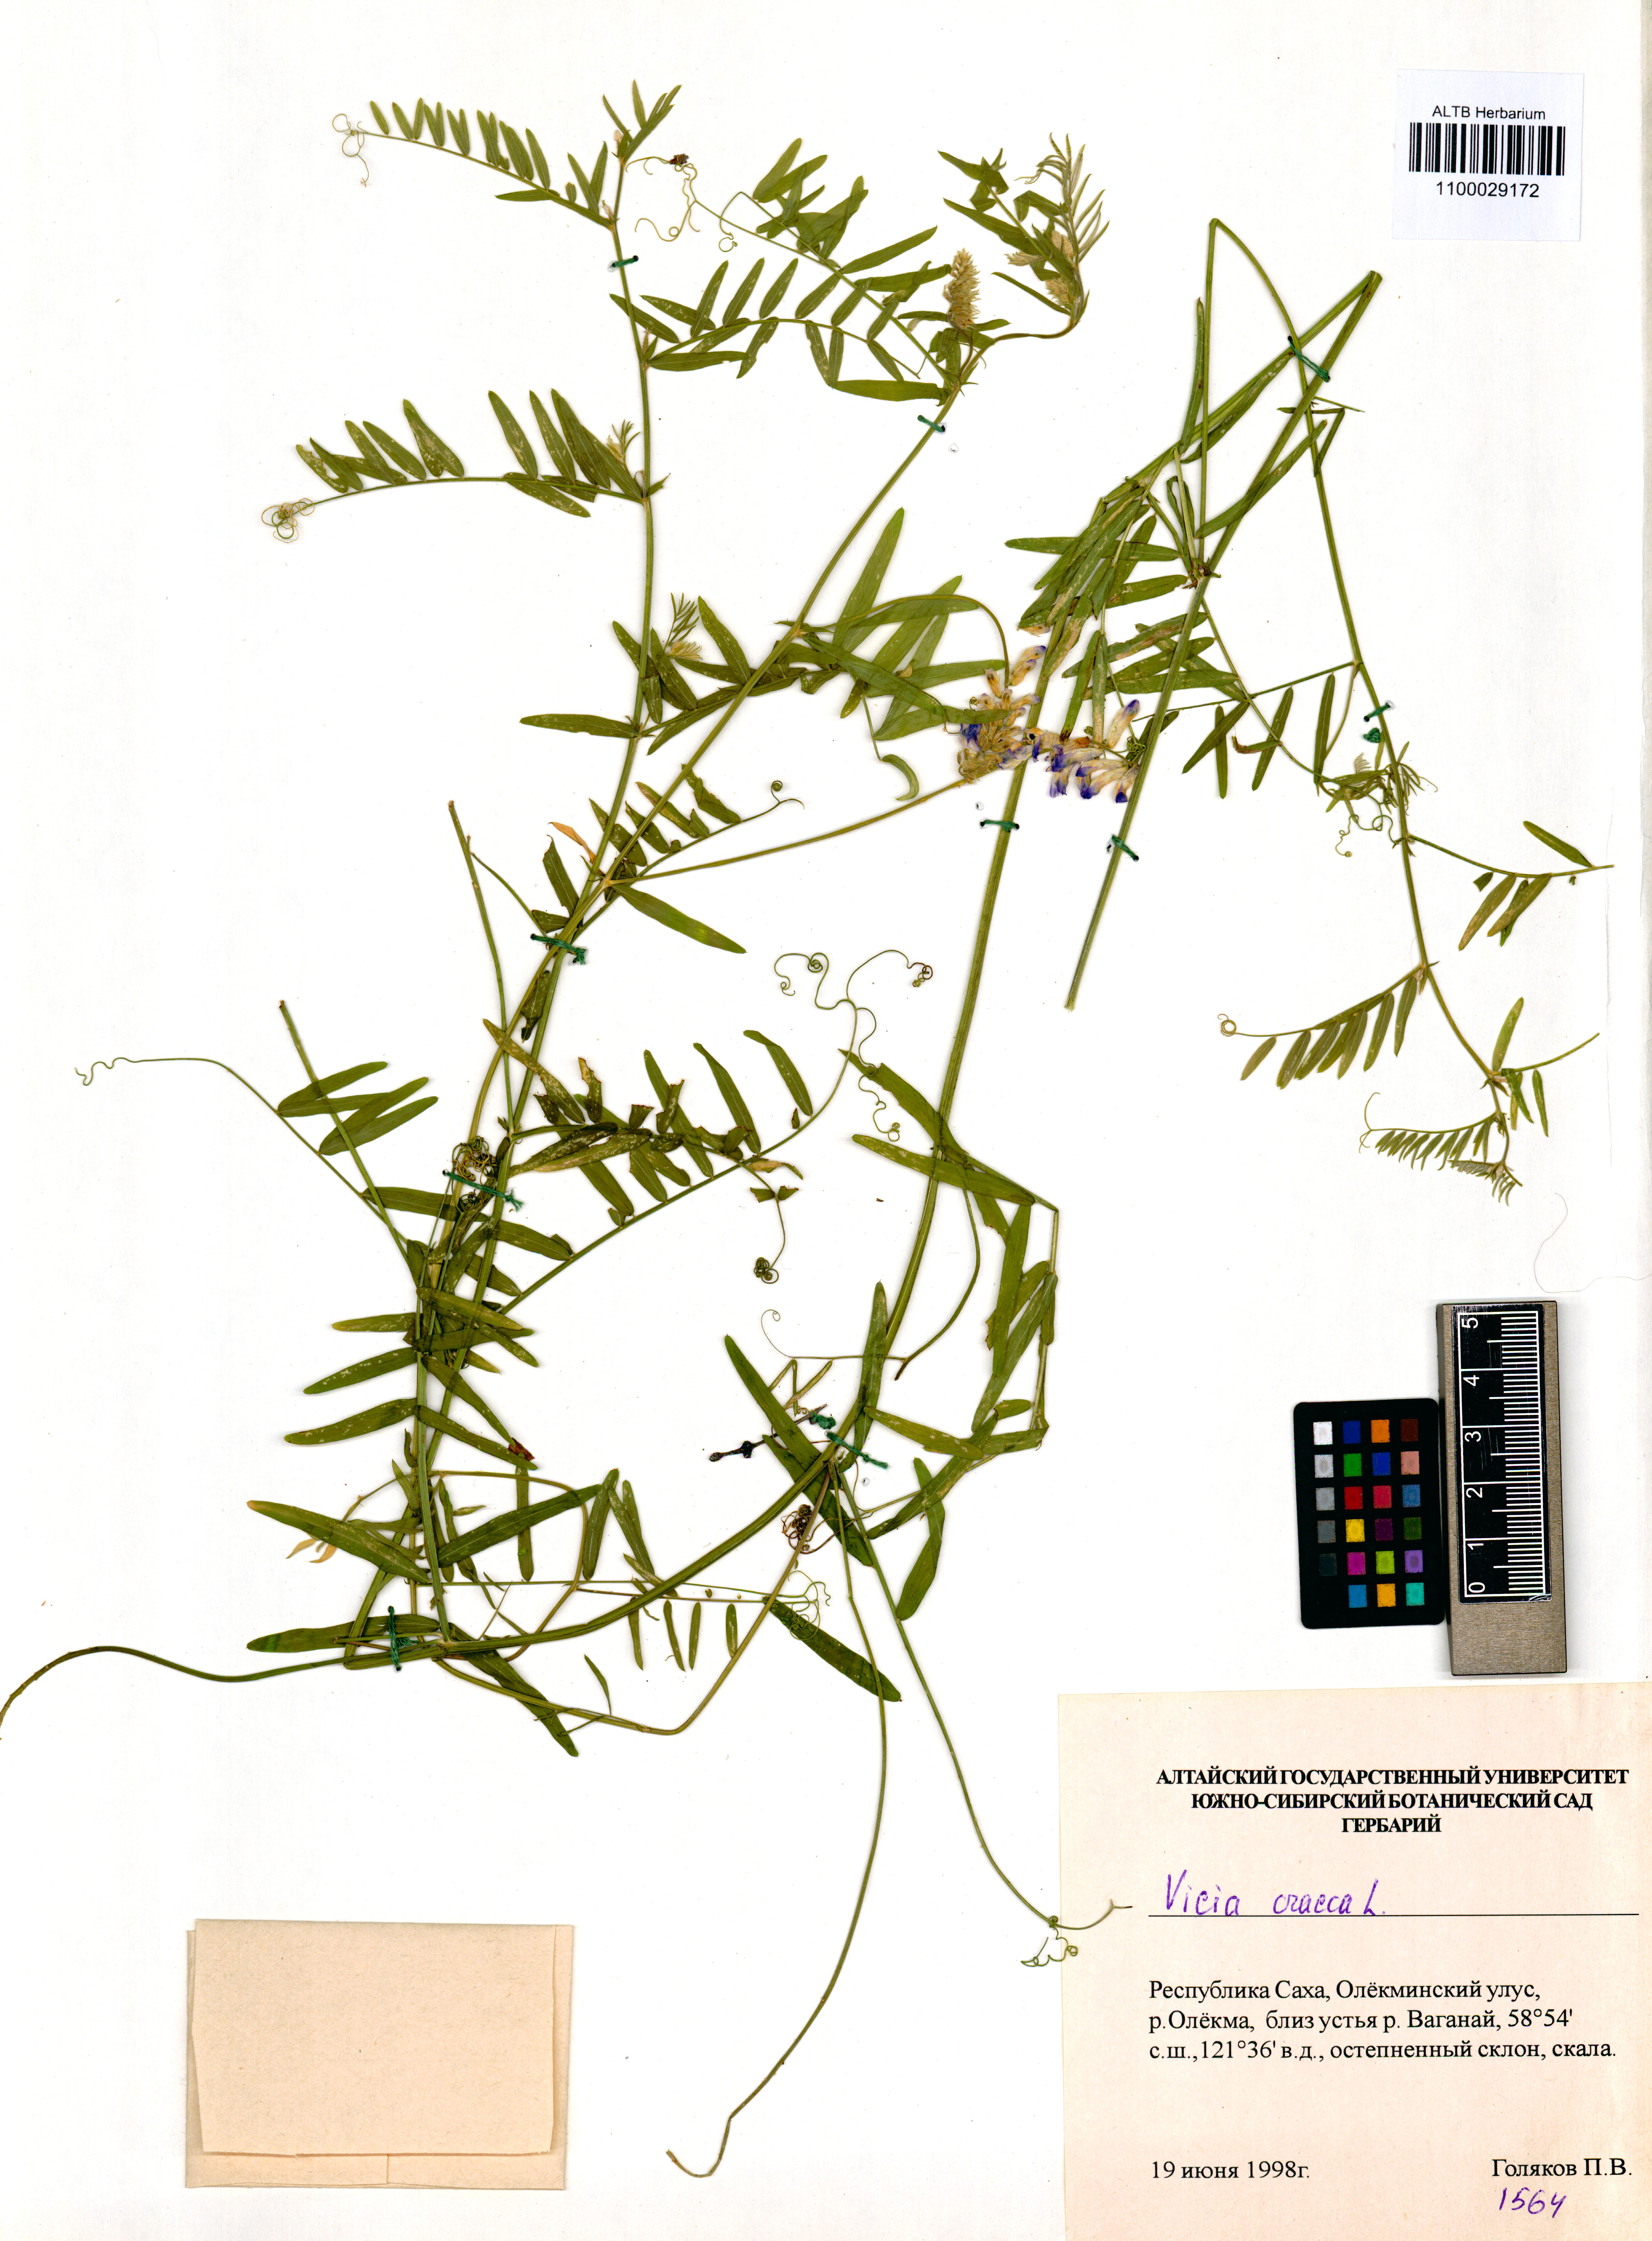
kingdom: Plantae
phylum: Tracheophyta
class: Magnoliopsida
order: Fabales
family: Fabaceae
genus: Vicia
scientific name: Vicia cracca
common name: Bird vetch
